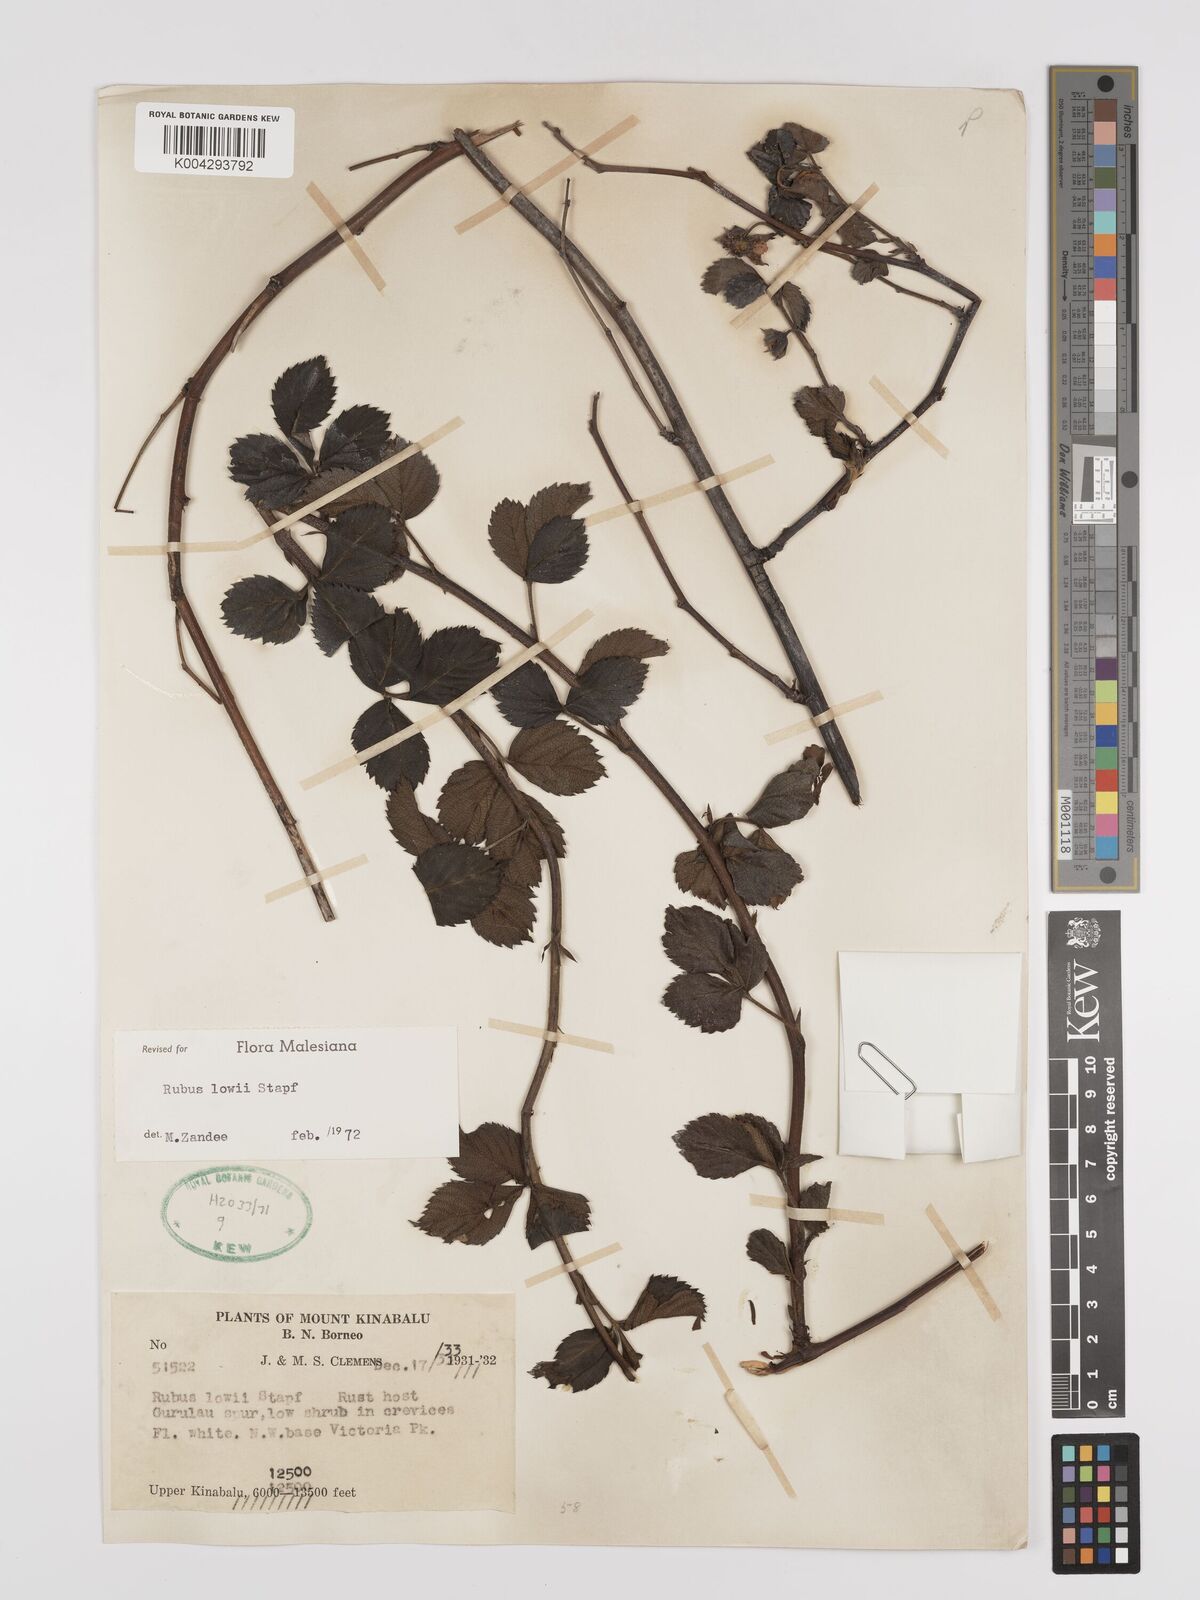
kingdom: Plantae
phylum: Tracheophyta
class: Magnoliopsida
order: Rosales
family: Rosaceae
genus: Rubus
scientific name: Rubus lowii
